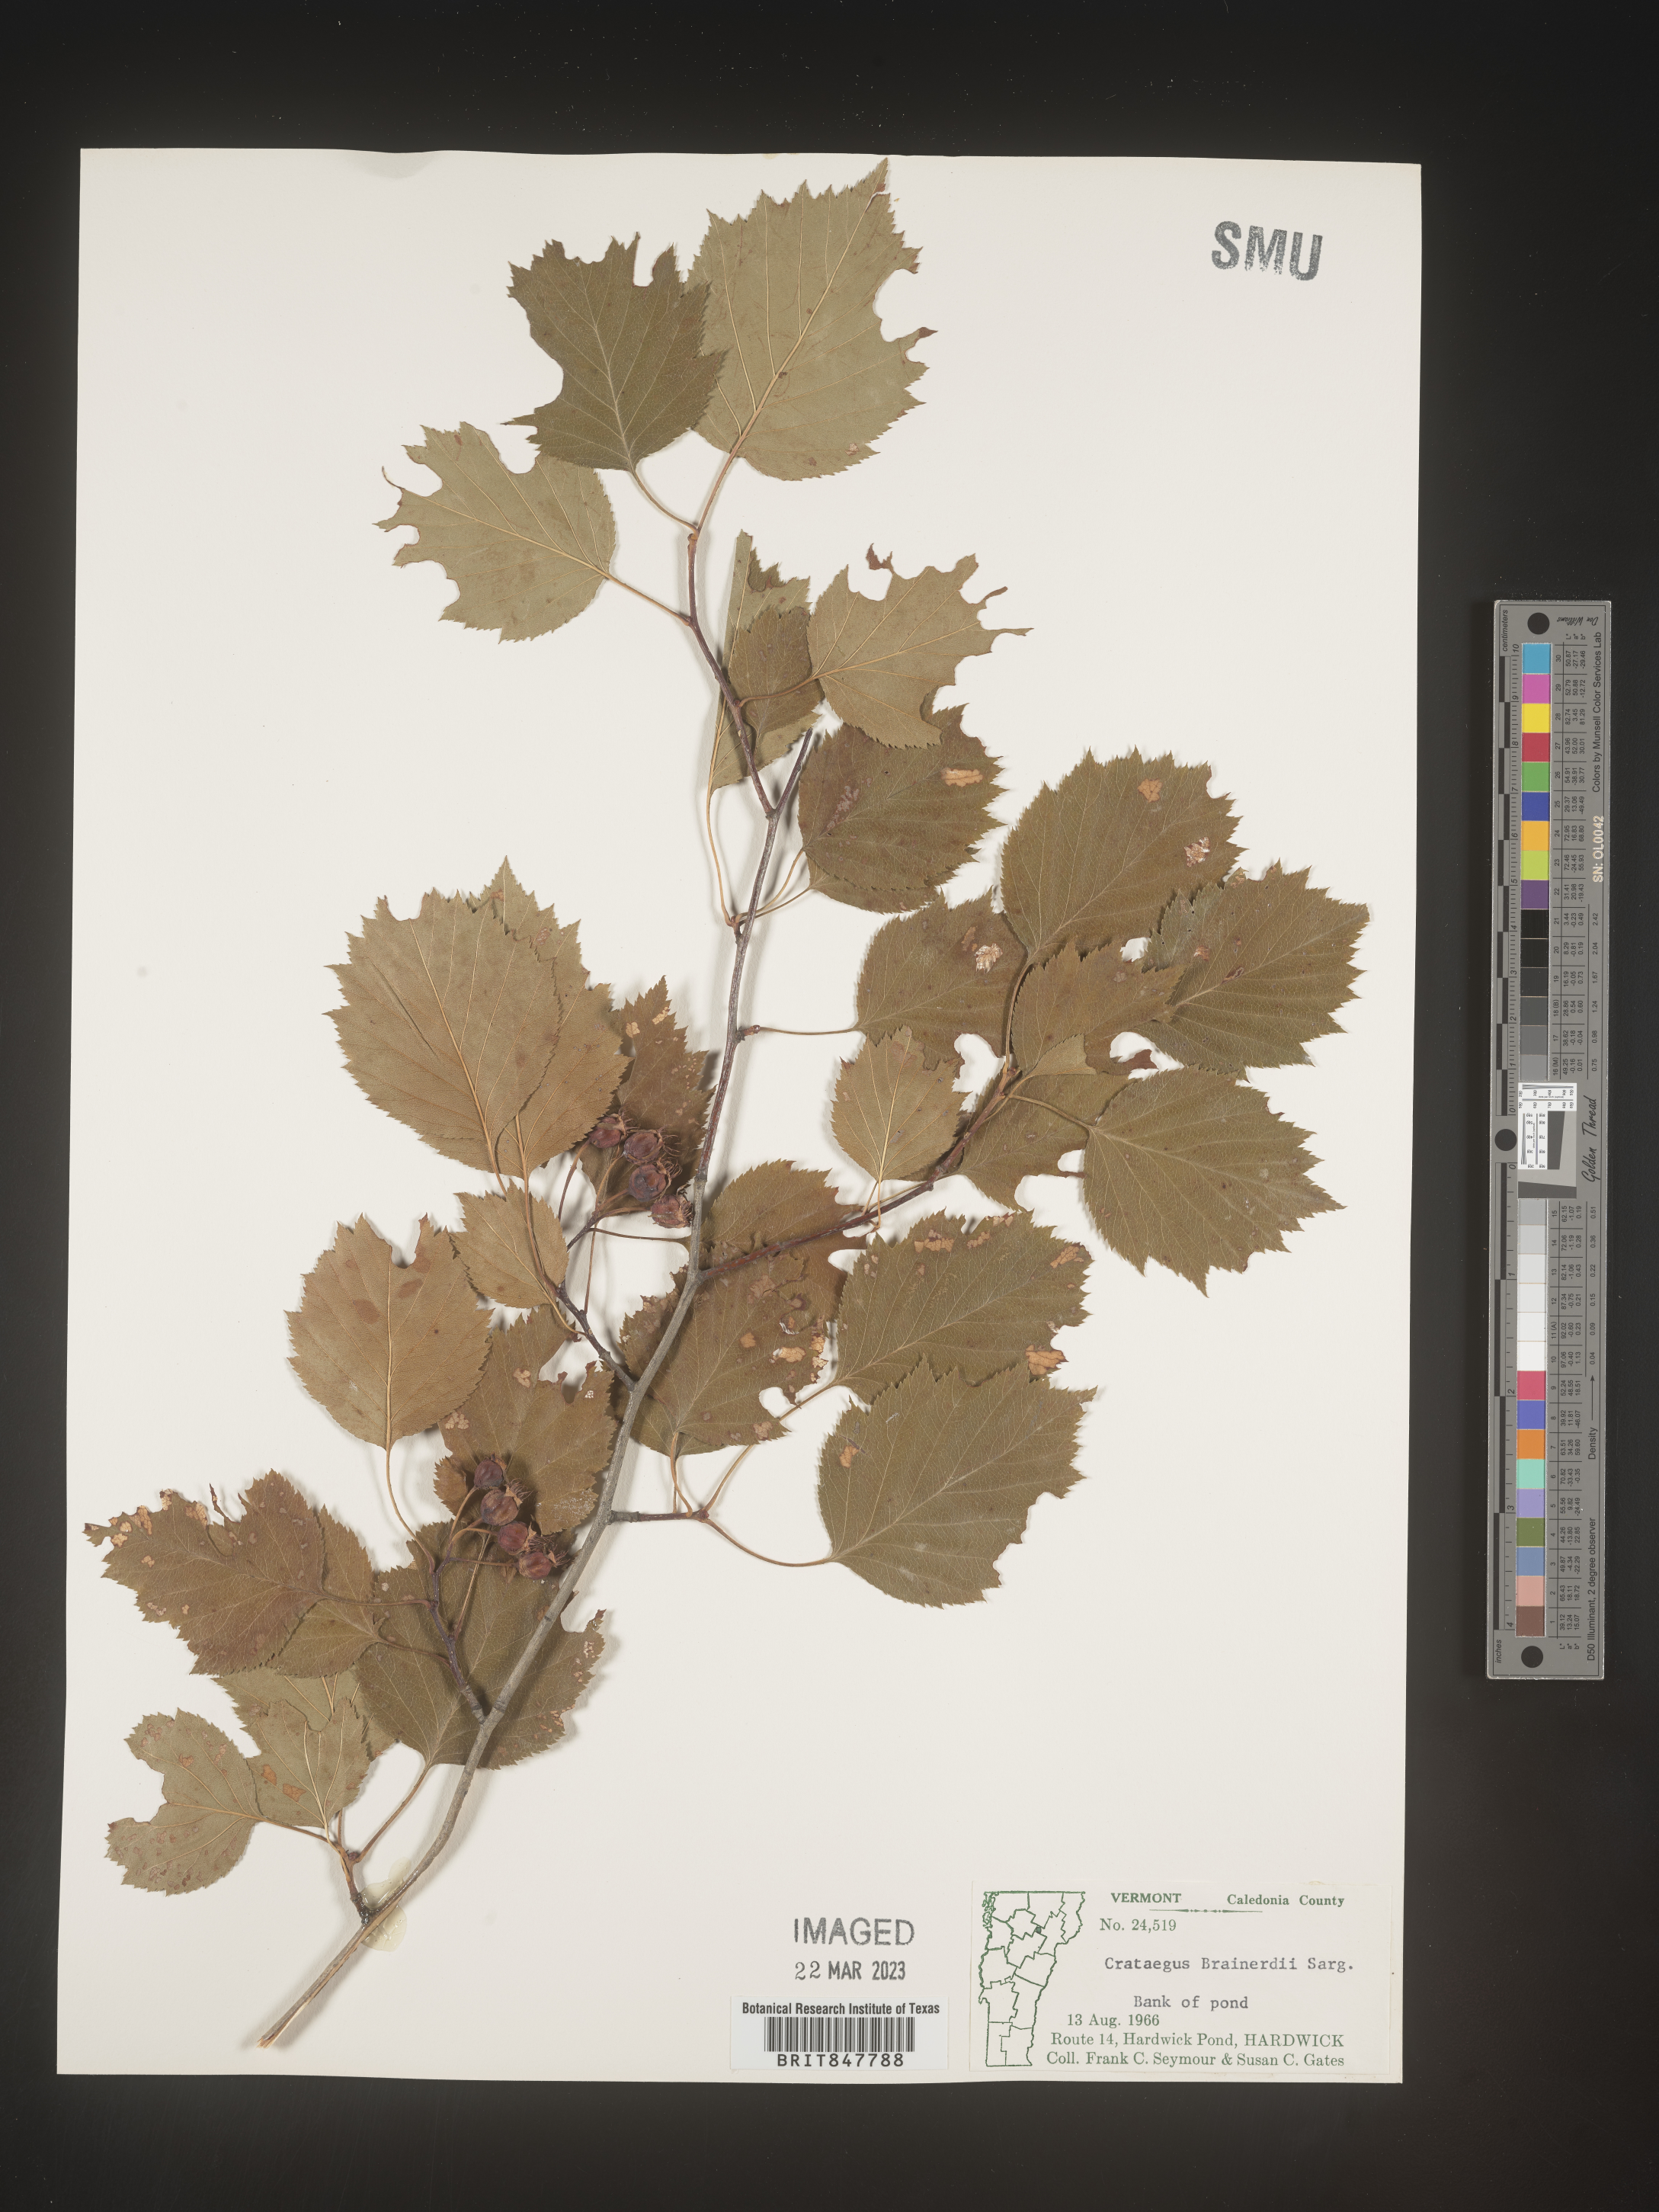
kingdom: Plantae
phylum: Tracheophyta
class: Magnoliopsida
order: Rosales
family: Rosaceae
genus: Crataegus
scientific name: Crataegus scabrida
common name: Rough hawthorn
